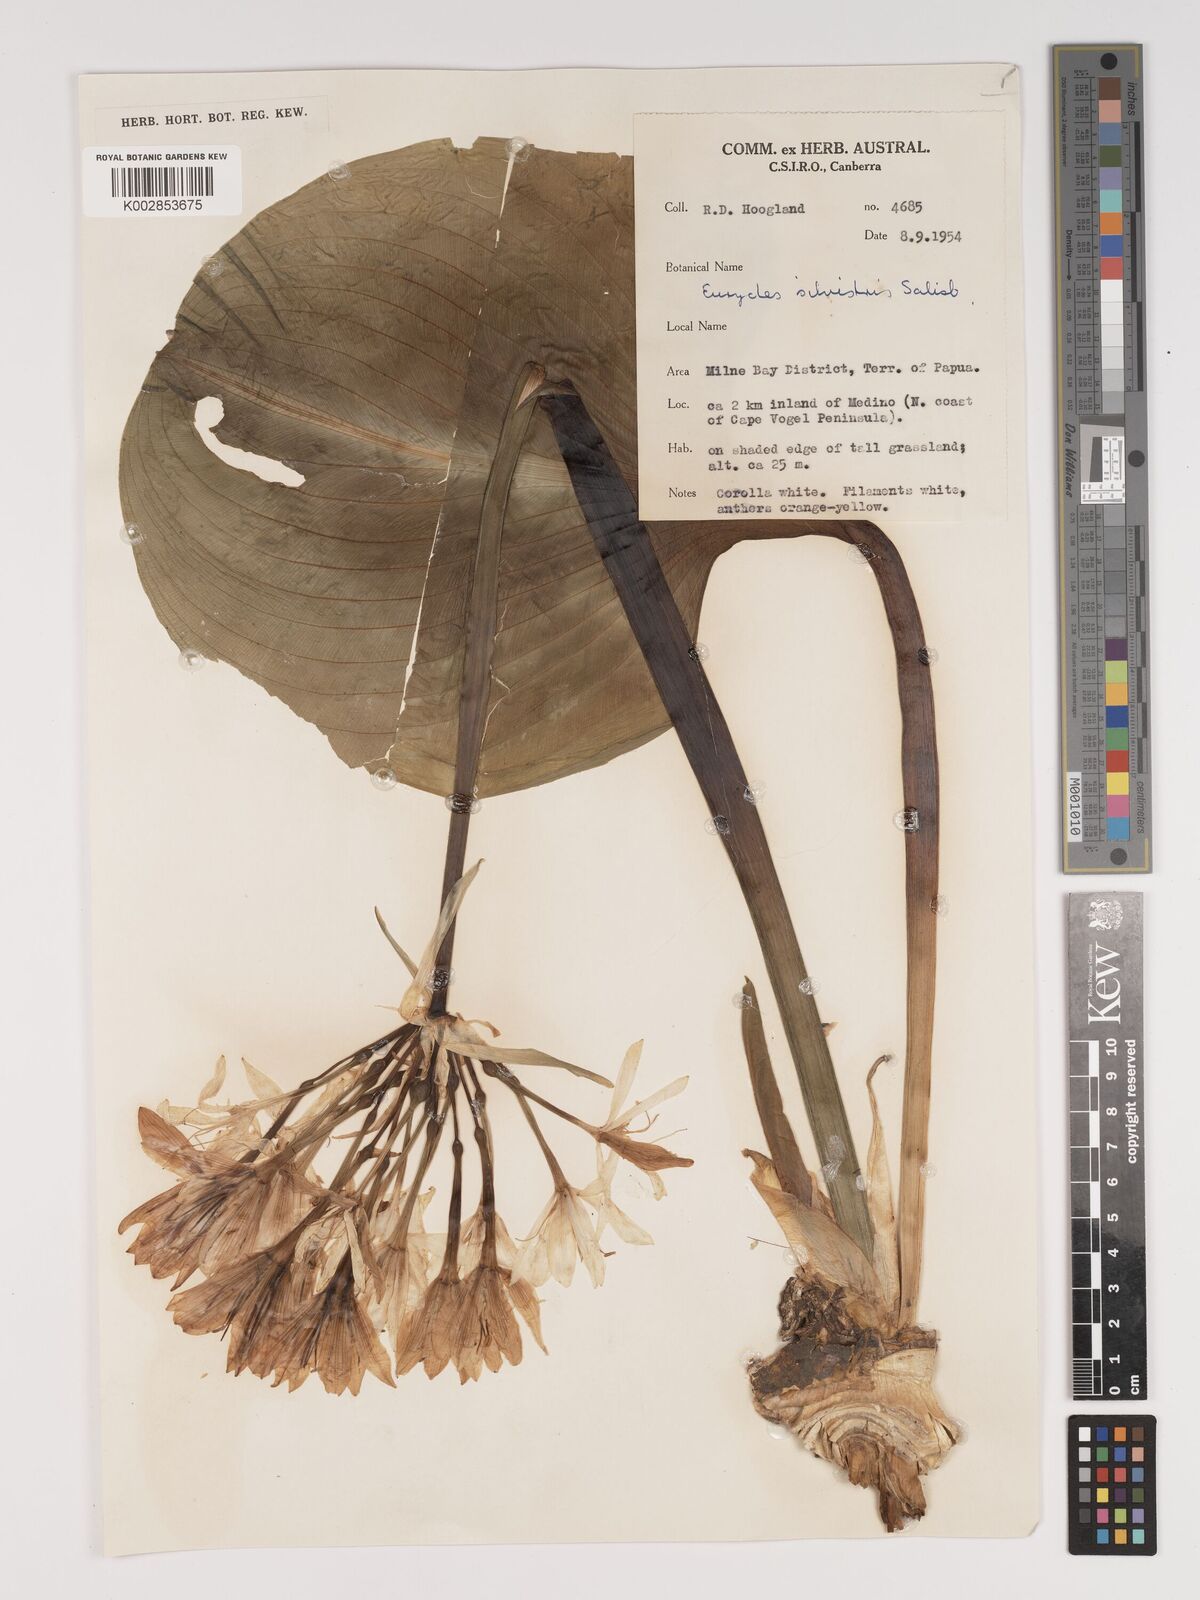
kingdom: Plantae
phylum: Tracheophyta
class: Liliopsida
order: Asparagales
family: Amaryllidaceae
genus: Proiphys
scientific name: Proiphys
